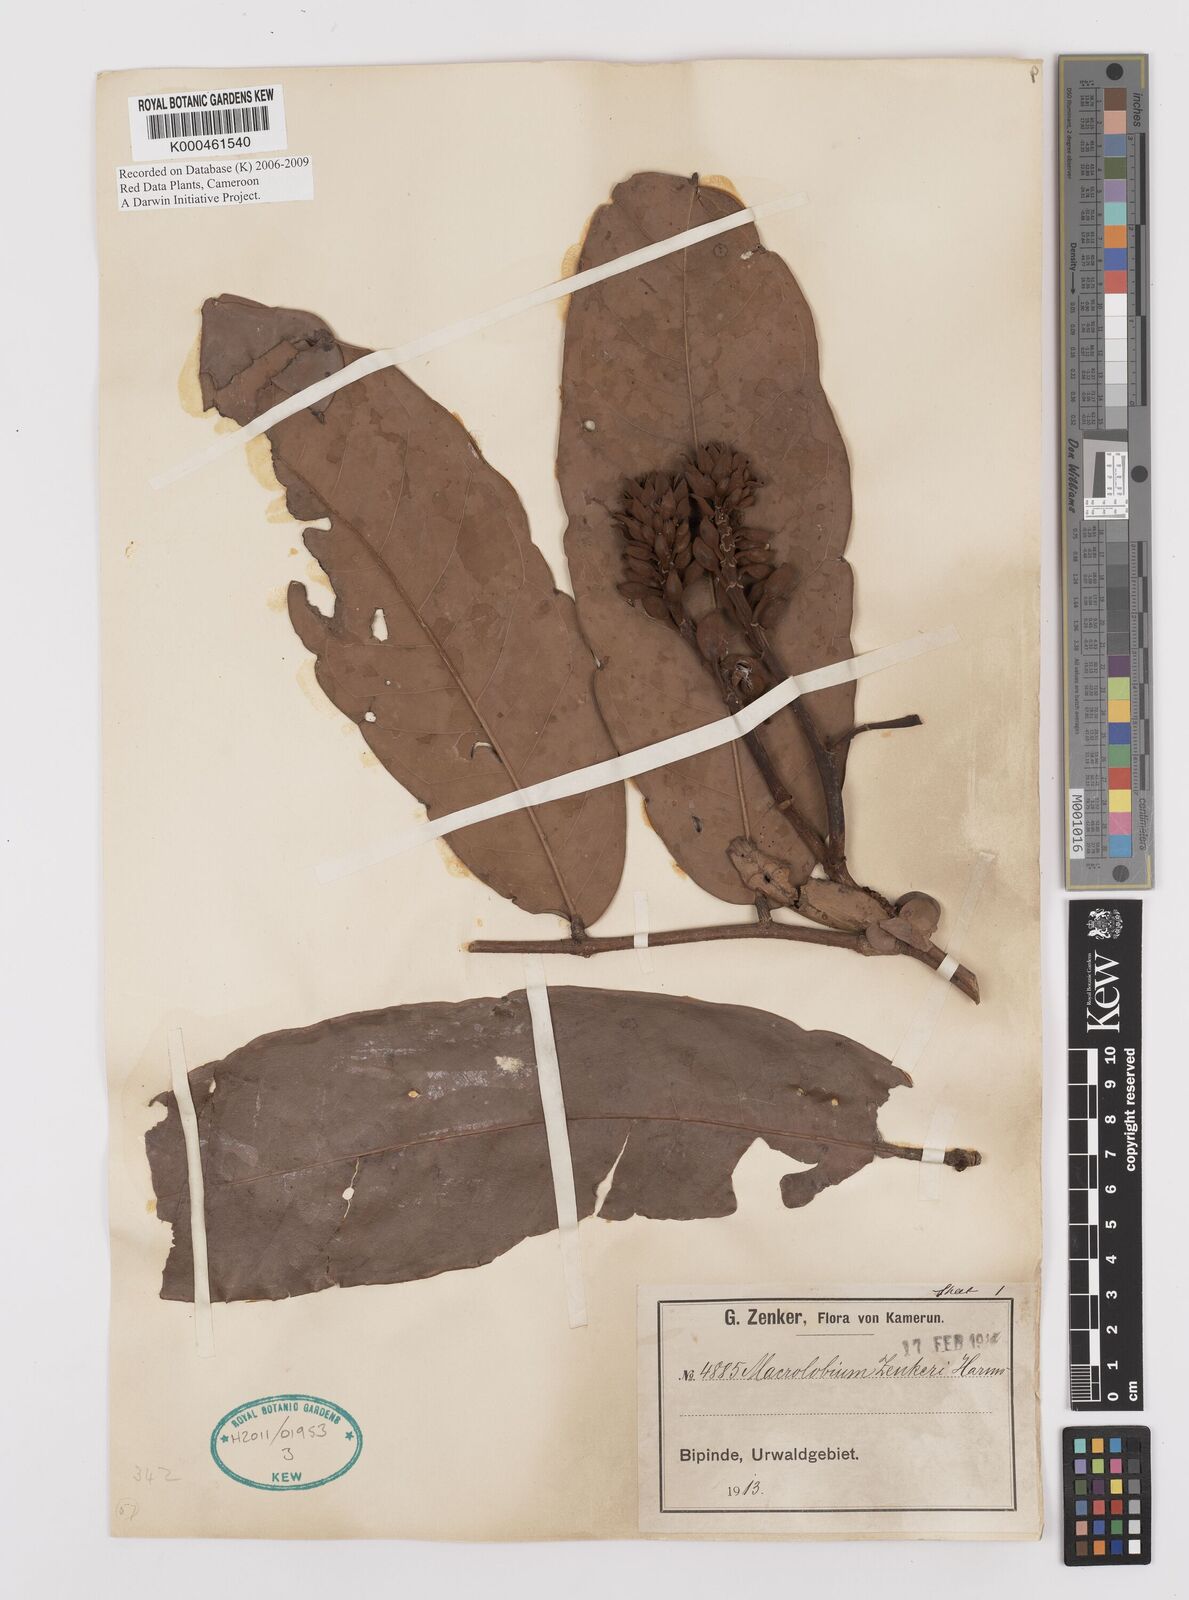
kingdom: Plantae
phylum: Tracheophyta
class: Magnoliopsida
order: Fabales
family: Fabaceae
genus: Gilbertiodendron
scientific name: Gilbertiodendron zenkeri
